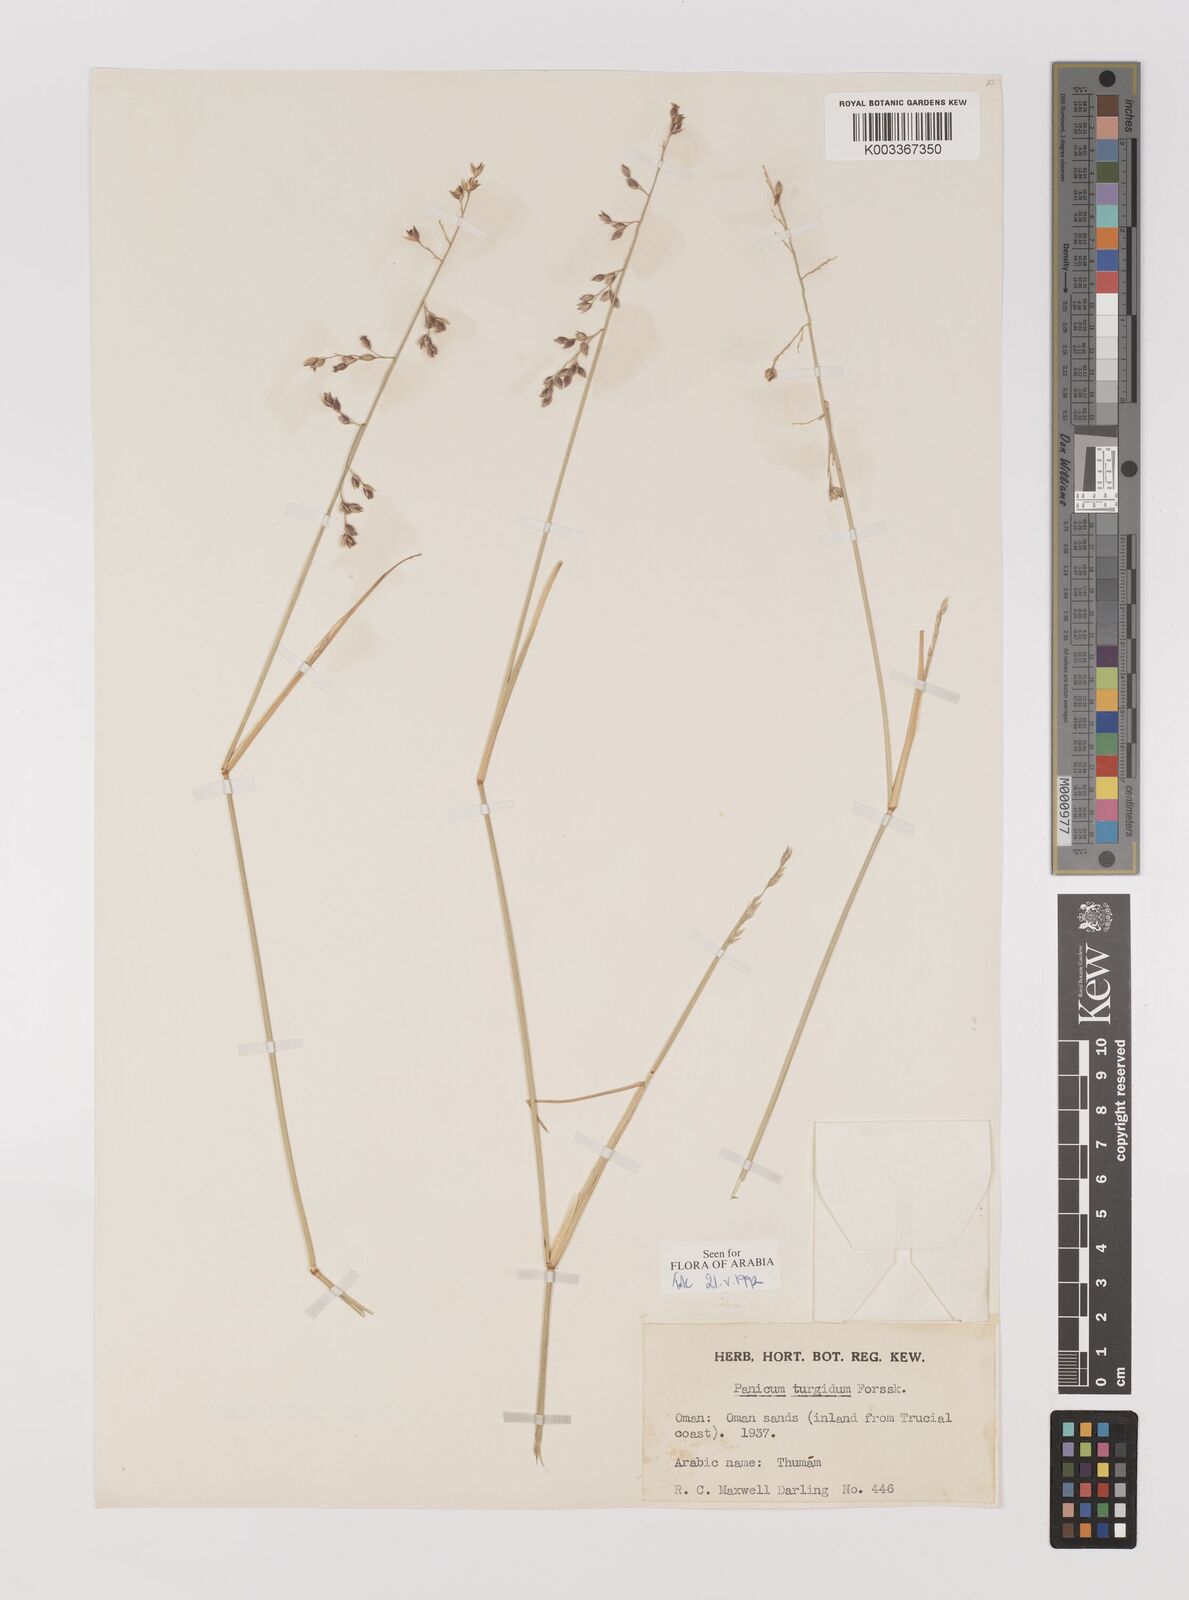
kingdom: Plantae
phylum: Tracheophyta
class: Liliopsida
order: Poales
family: Poaceae
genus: Panicum
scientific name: Panicum turgidum
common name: Desert grass
